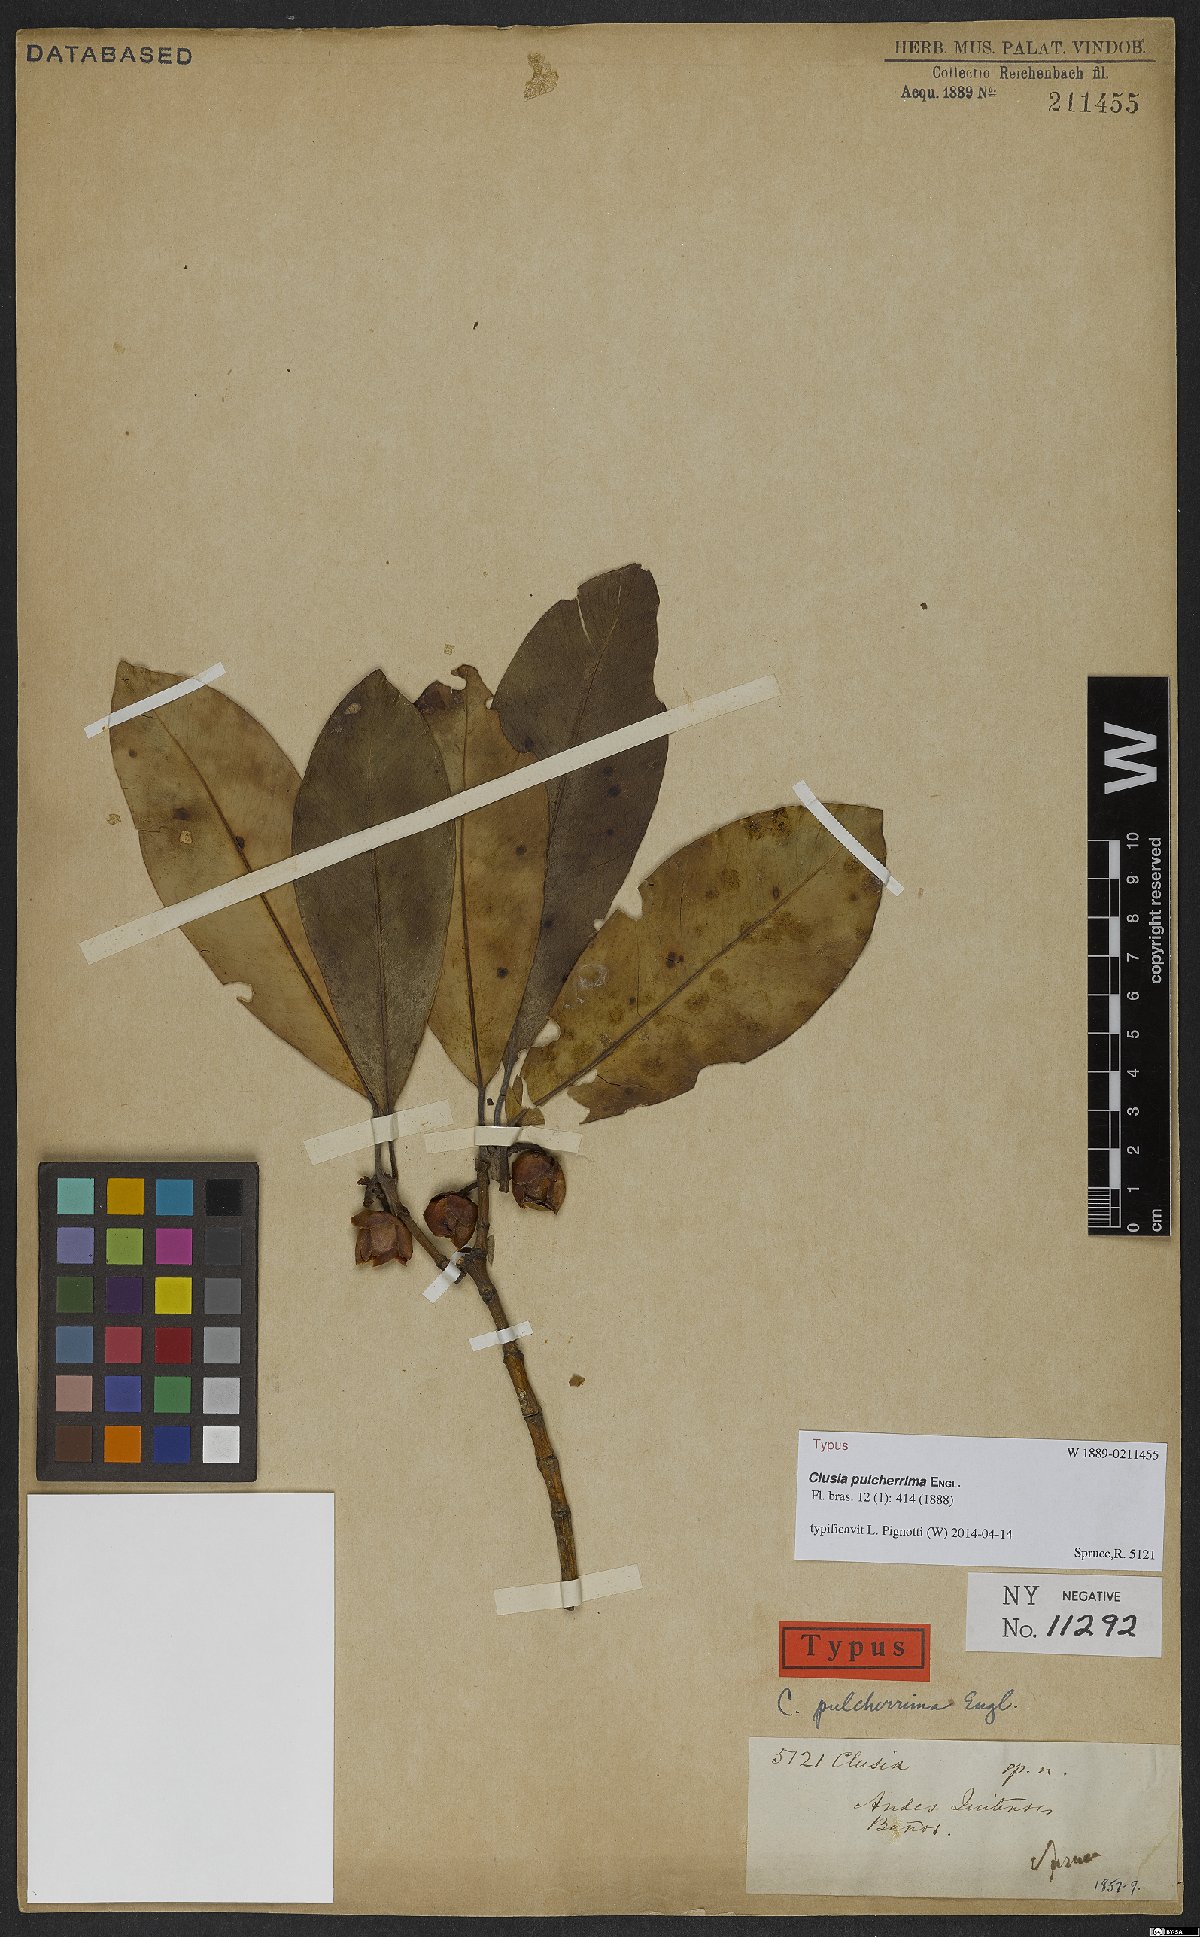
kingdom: Plantae
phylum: Tracheophyta
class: Magnoliopsida
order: Malpighiales
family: Clusiaceae
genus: Clusia
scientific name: Clusia pulcherrima
